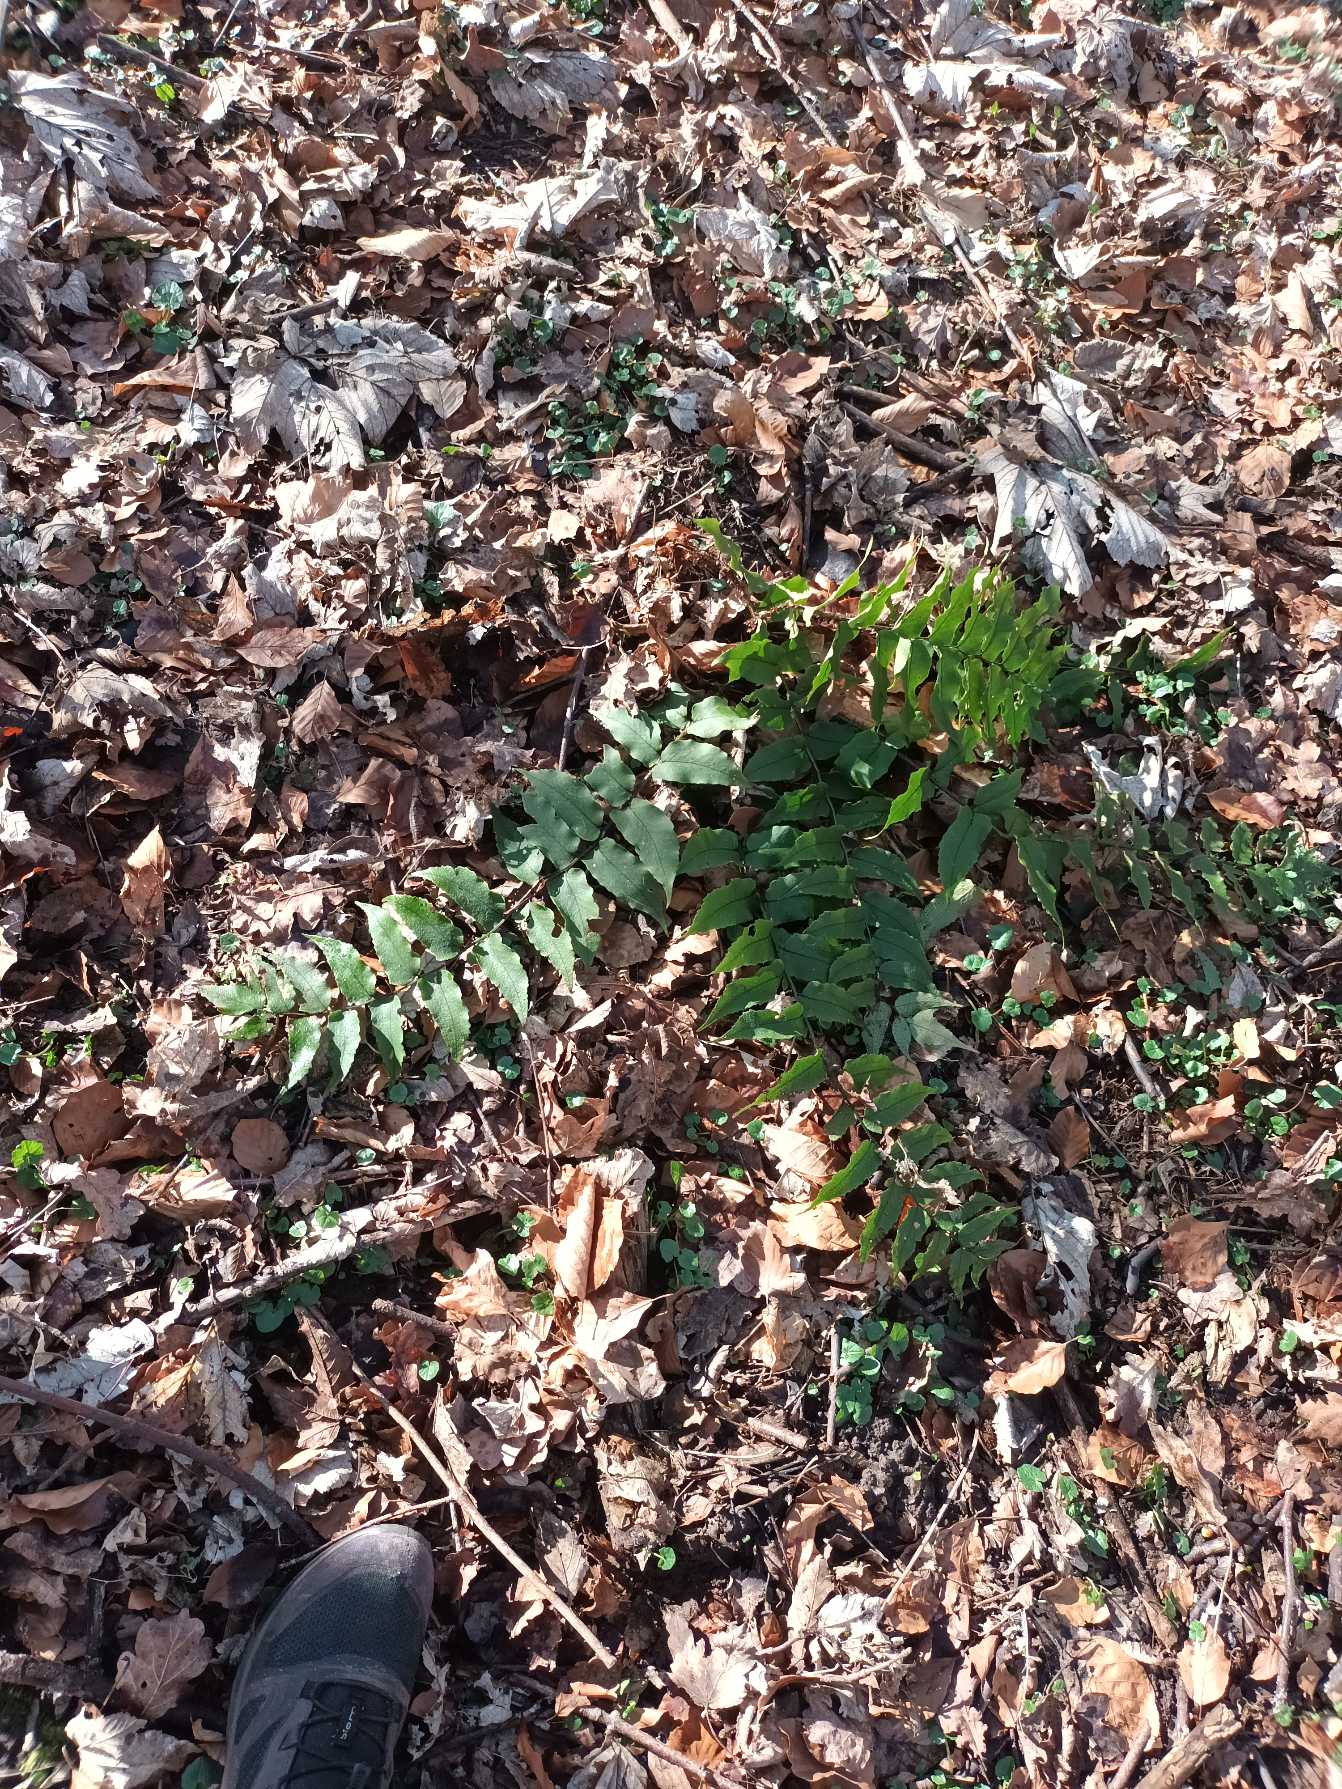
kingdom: Plantae
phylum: Tracheophyta
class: Polypodiopsida
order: Polypodiales
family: Dryopteridaceae
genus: Cyrtomium
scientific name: Cyrtomium fortunei
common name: Mahoniebregne
